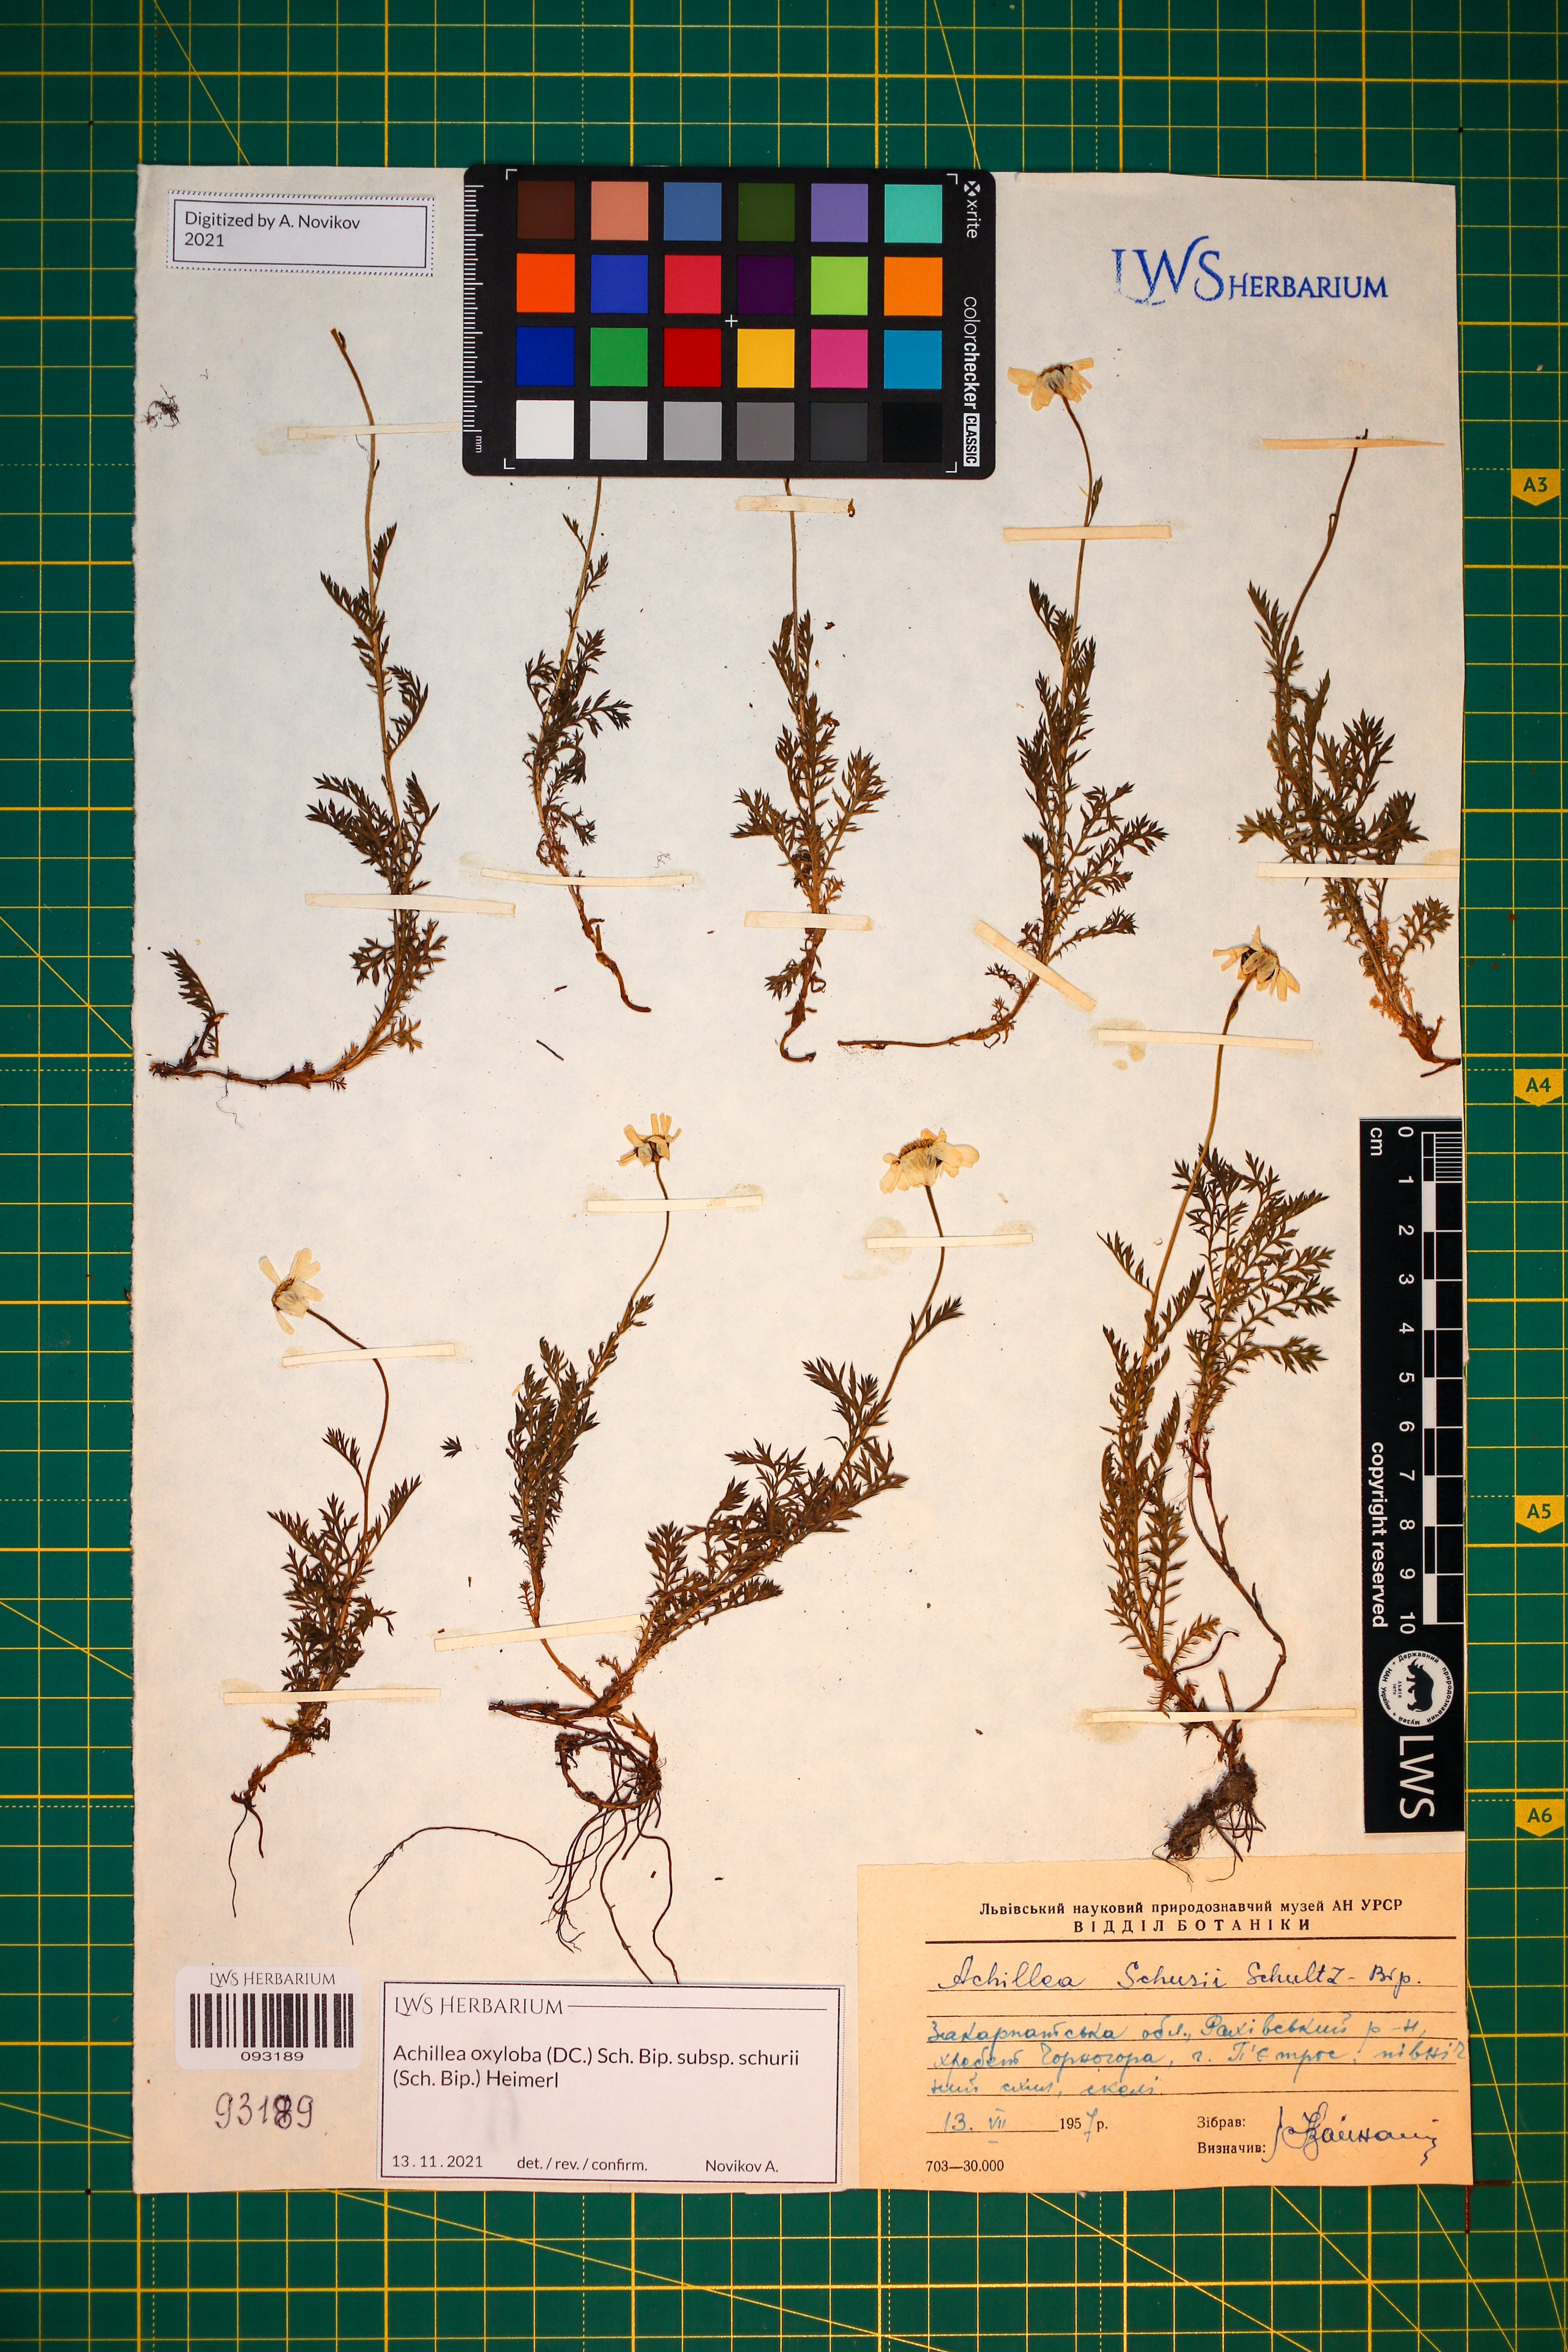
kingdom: Plantae
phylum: Tracheophyta
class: Magnoliopsida
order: Asterales
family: Asteraceae
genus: Achillea
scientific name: Achillea oxyloba
